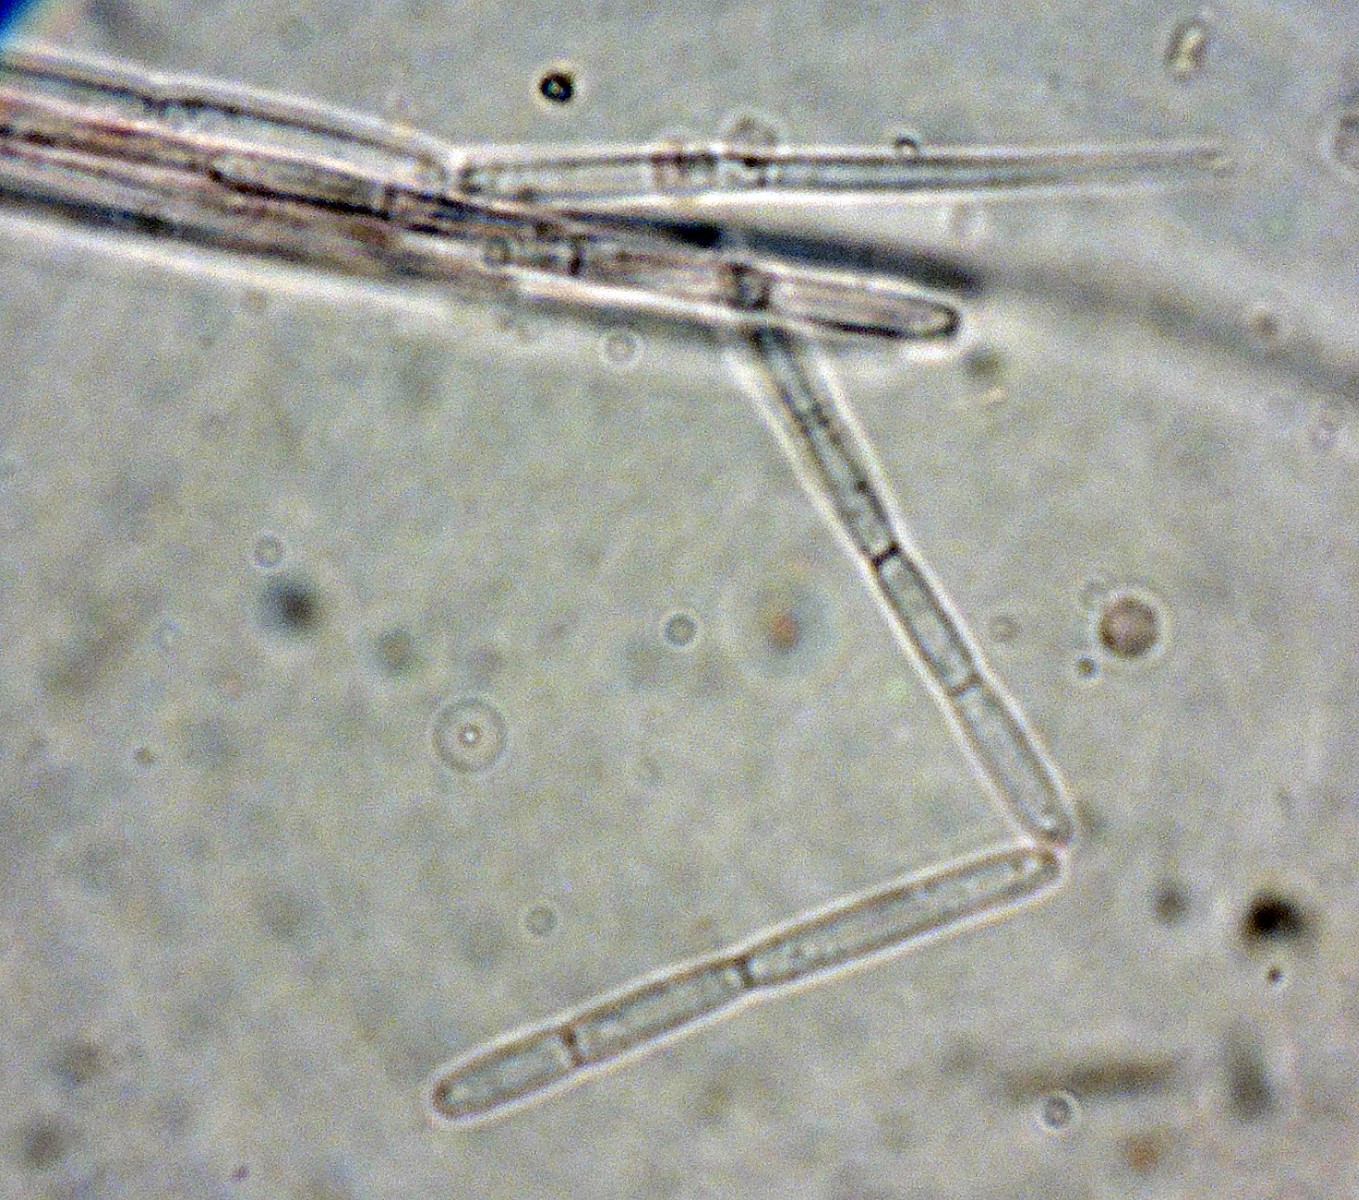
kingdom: Fungi
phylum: Ascomycota
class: Leotiomycetes
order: Helotiales
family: Vibrisseaceae
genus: Vibrissea
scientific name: Vibrissea flavovirens
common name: gulgrøn bækskive
